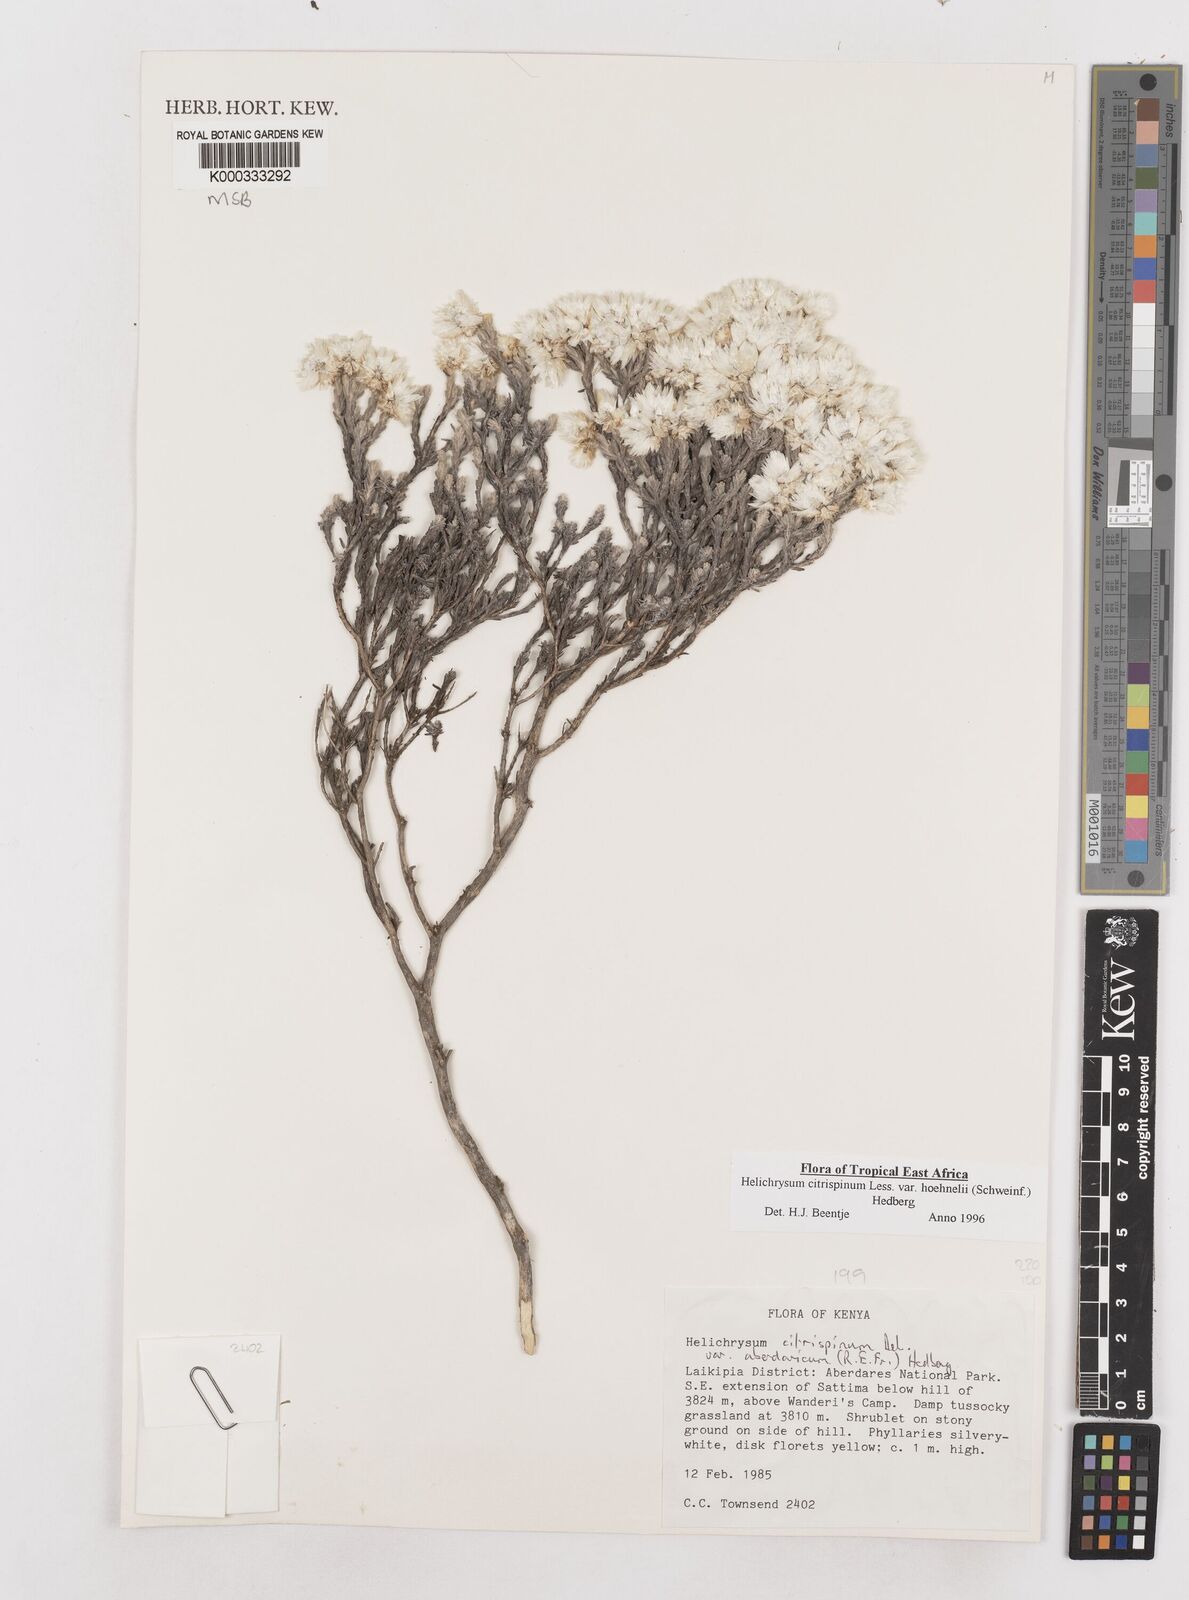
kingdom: Plantae
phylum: Tracheophyta
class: Magnoliopsida
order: Asterales
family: Asteraceae
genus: Helichrysum
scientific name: Helichrysum citrispinum
